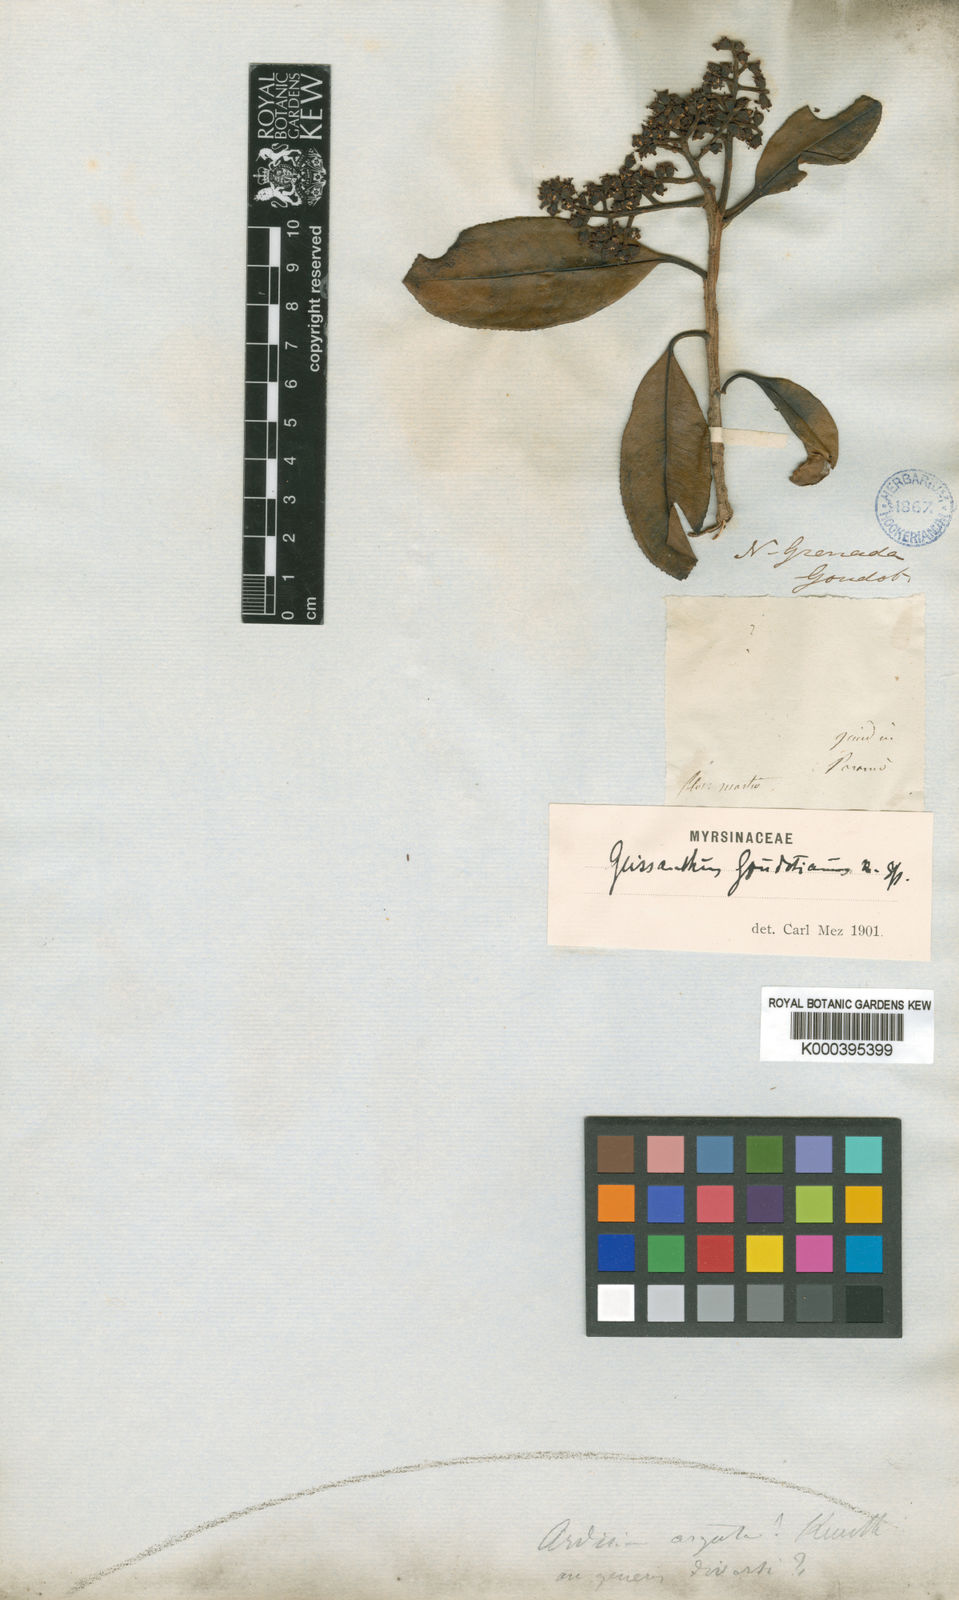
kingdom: Plantae
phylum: Tracheophyta
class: Magnoliopsida
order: Ericales
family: Primulaceae
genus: Geissanthus
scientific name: Geissanthus goudotianus
